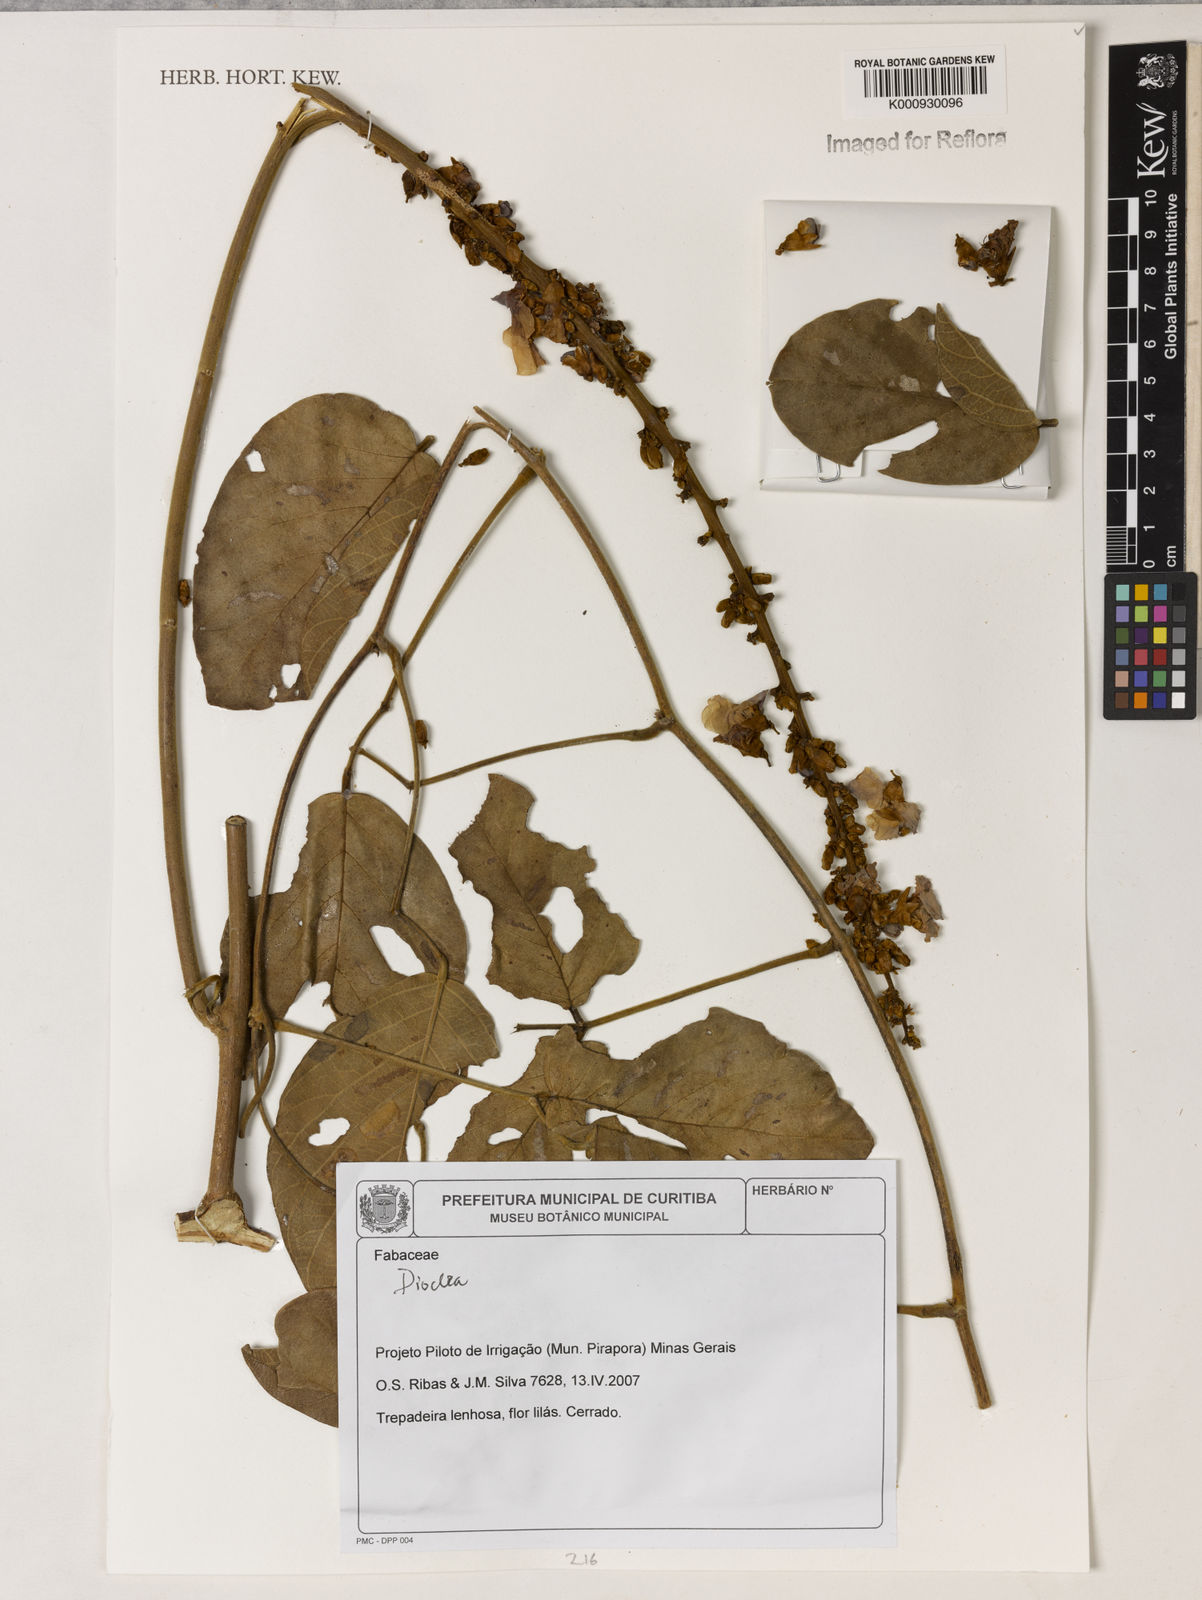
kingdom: Plantae
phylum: Tracheophyta
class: Magnoliopsida
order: Fabales
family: Fabaceae
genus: Dioclea
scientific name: Dioclea
